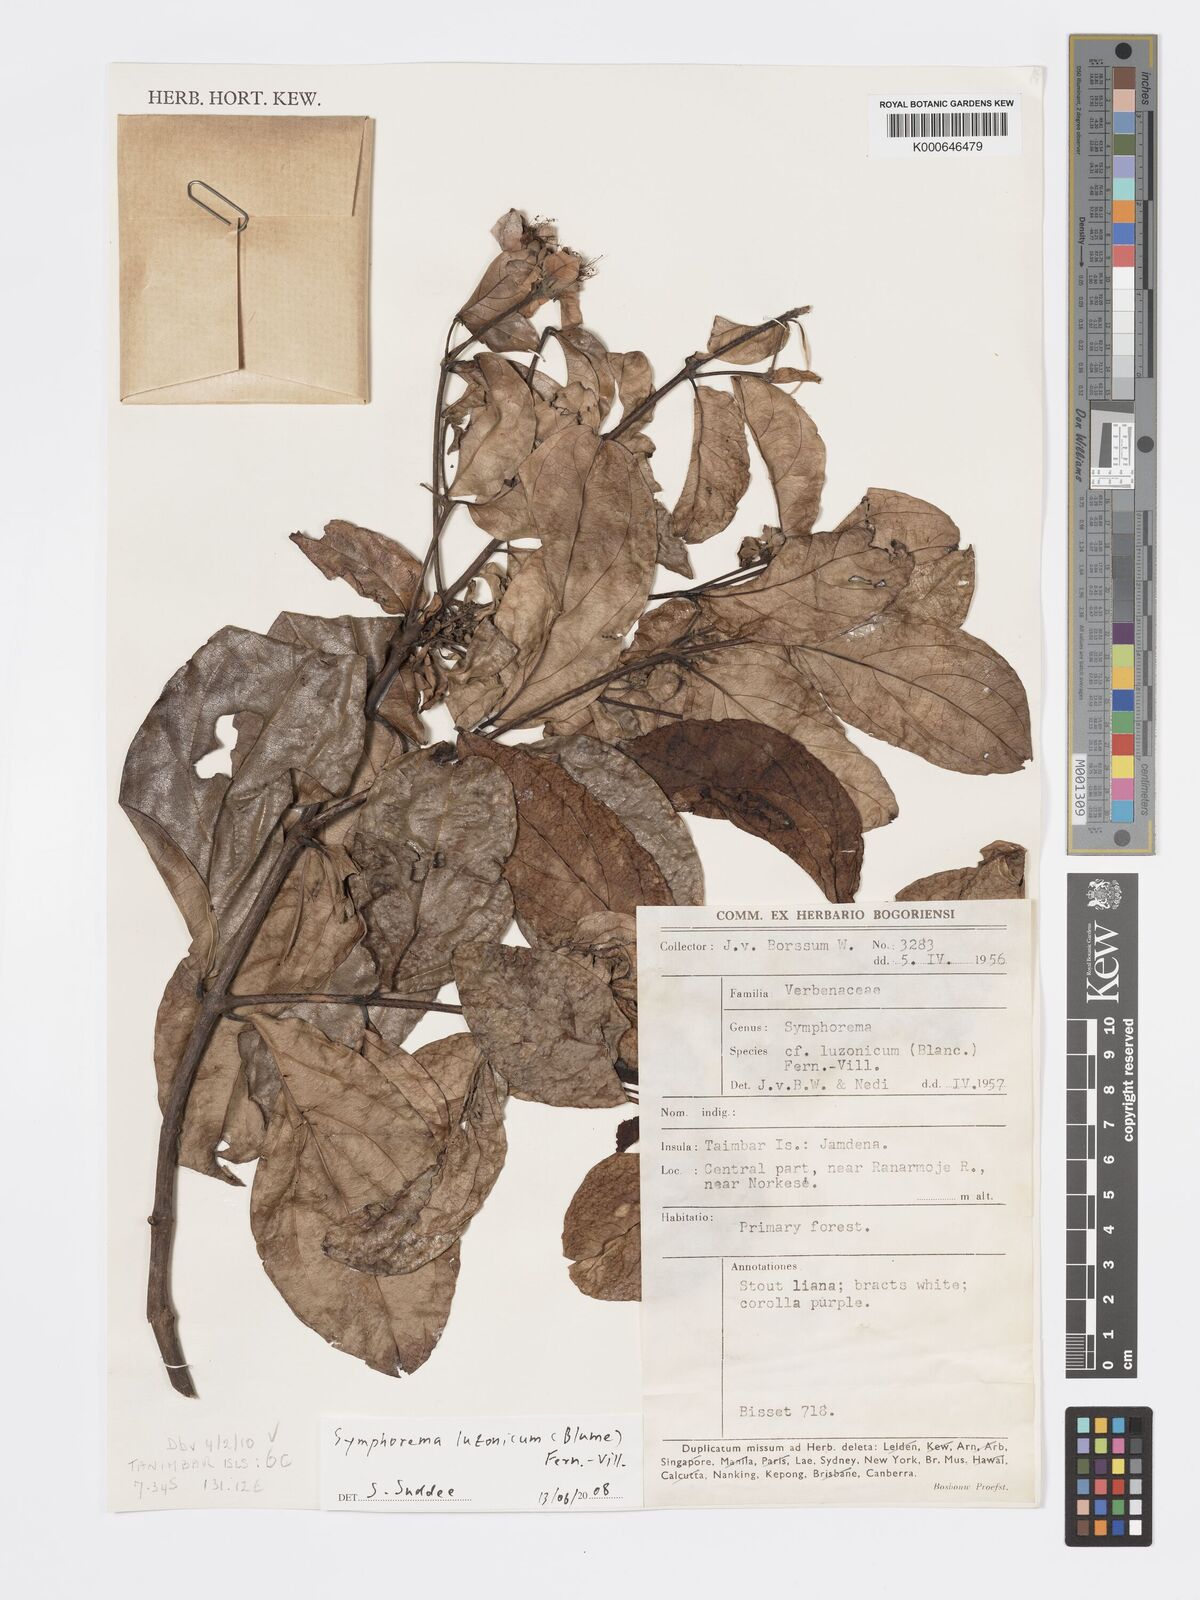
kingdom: Plantae
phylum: Tracheophyta
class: Magnoliopsida
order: Lamiales
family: Lamiaceae
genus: Symphorema
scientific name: Symphorema involucratum
